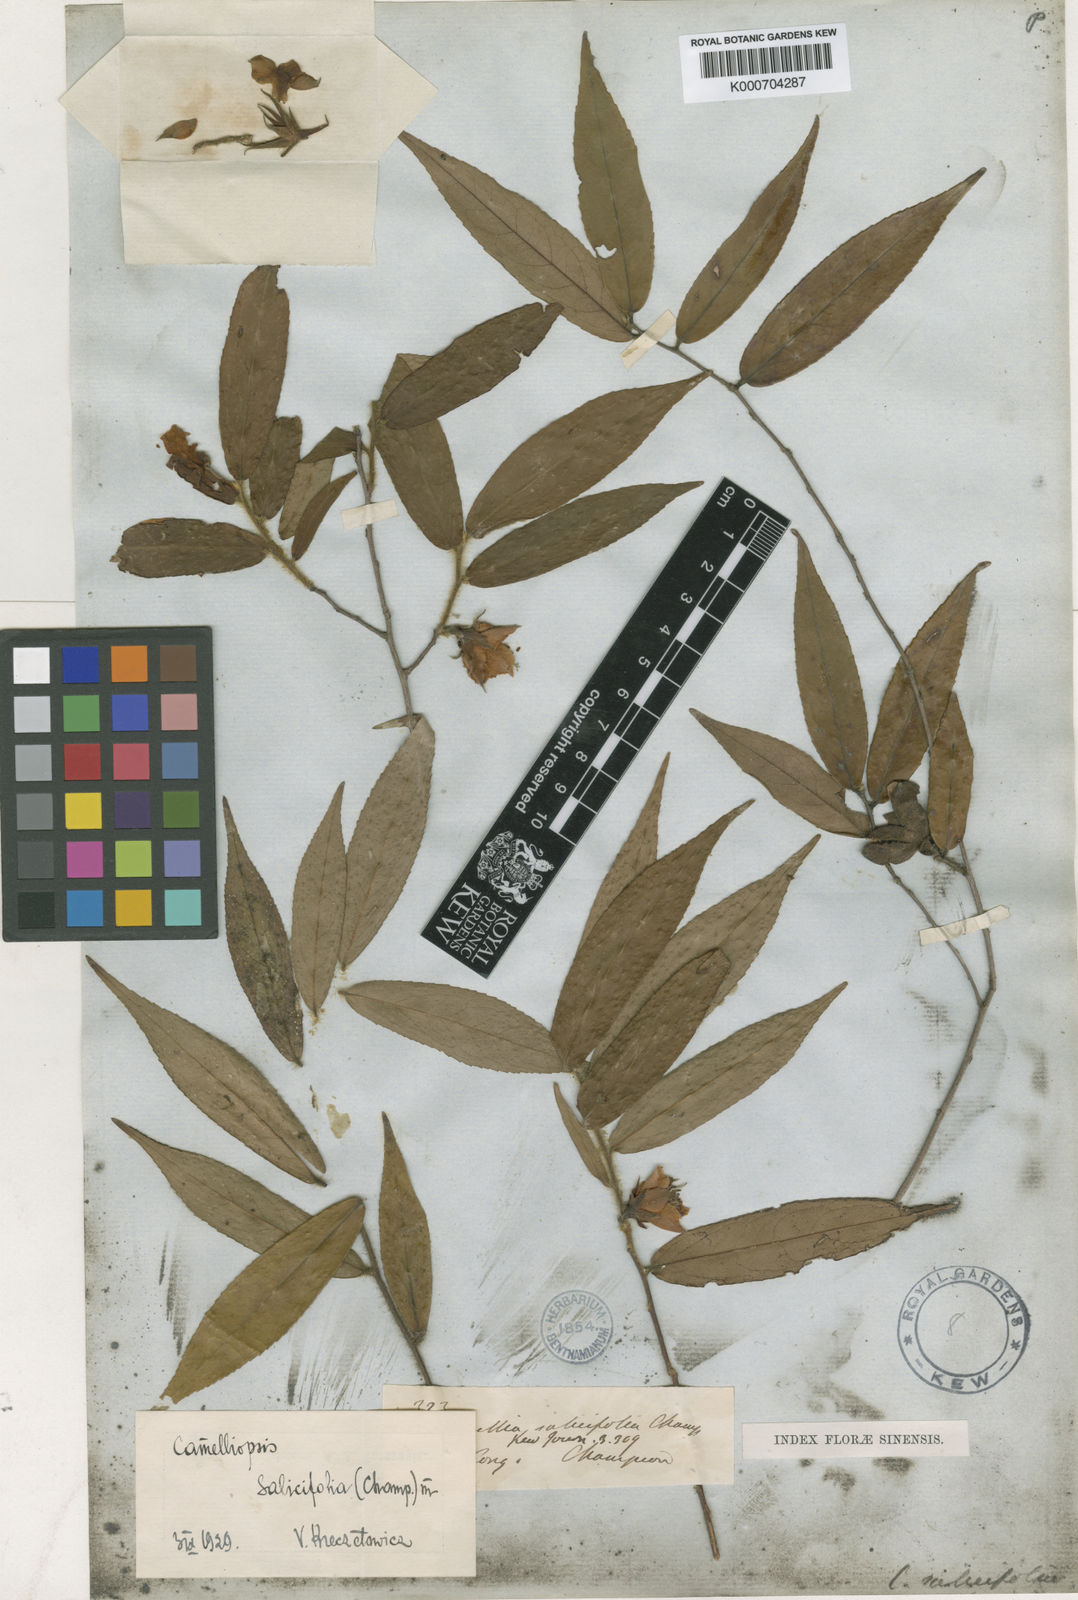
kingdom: Plantae
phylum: Tracheophyta
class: Magnoliopsida
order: Ericales
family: Theaceae
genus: Camellia
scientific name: Camellia
